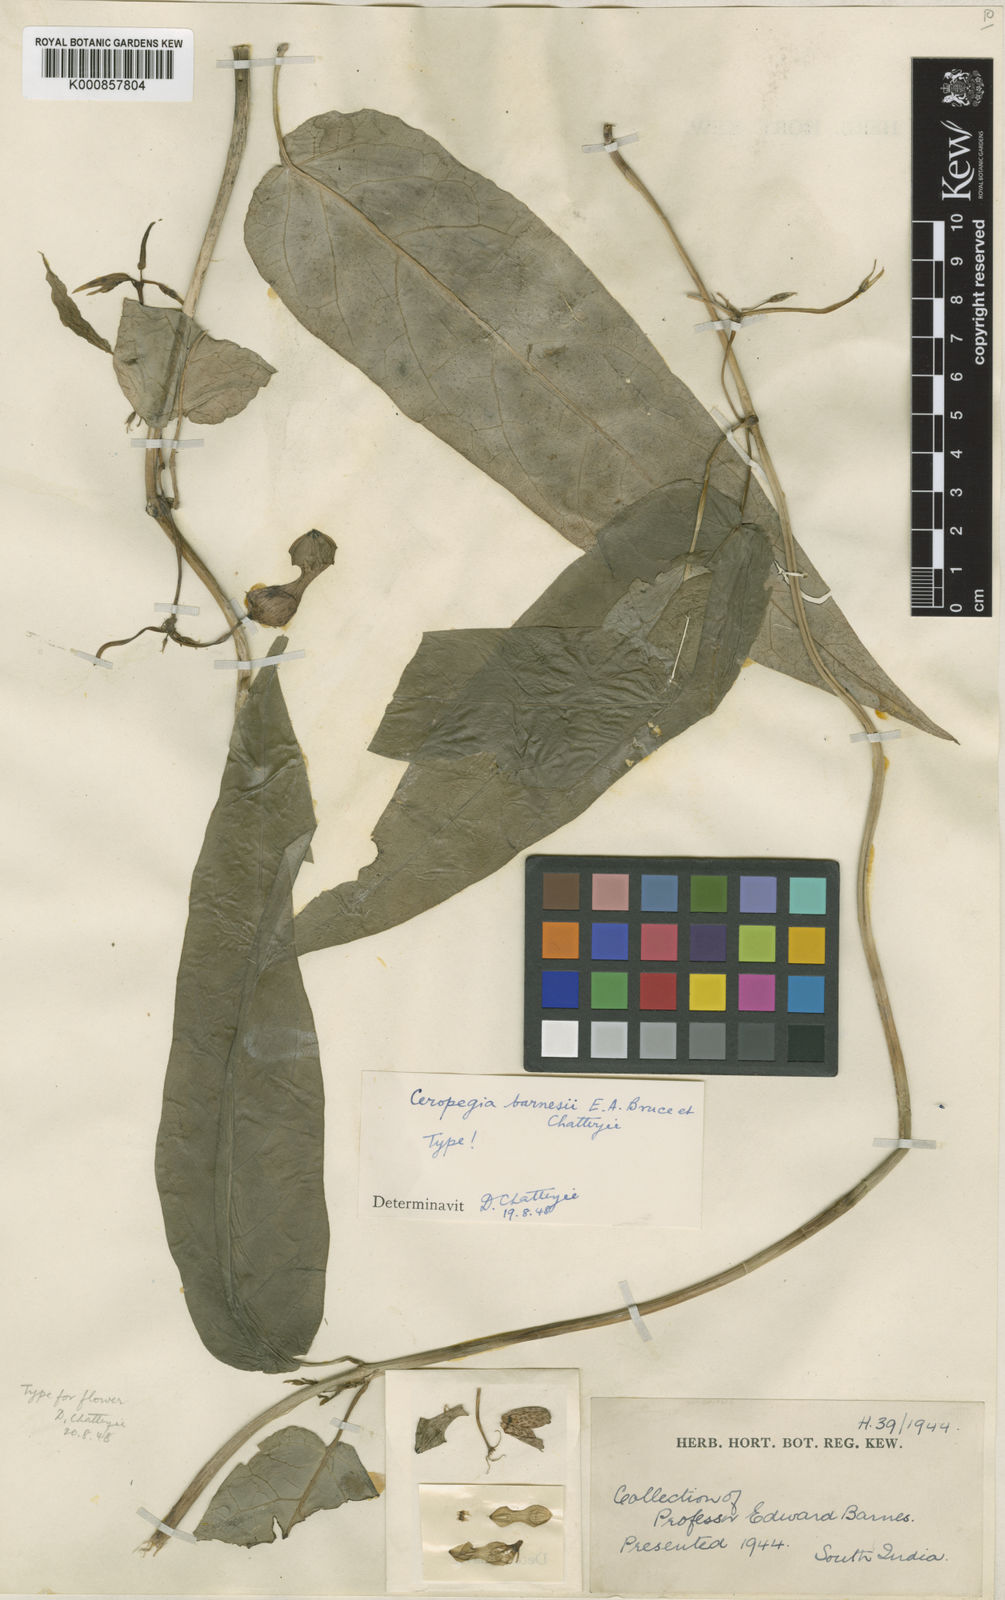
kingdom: Plantae
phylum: Tracheophyta
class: Magnoliopsida
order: Gentianales
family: Apocynaceae
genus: Ceropegia
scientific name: Ceropegia barnesii
